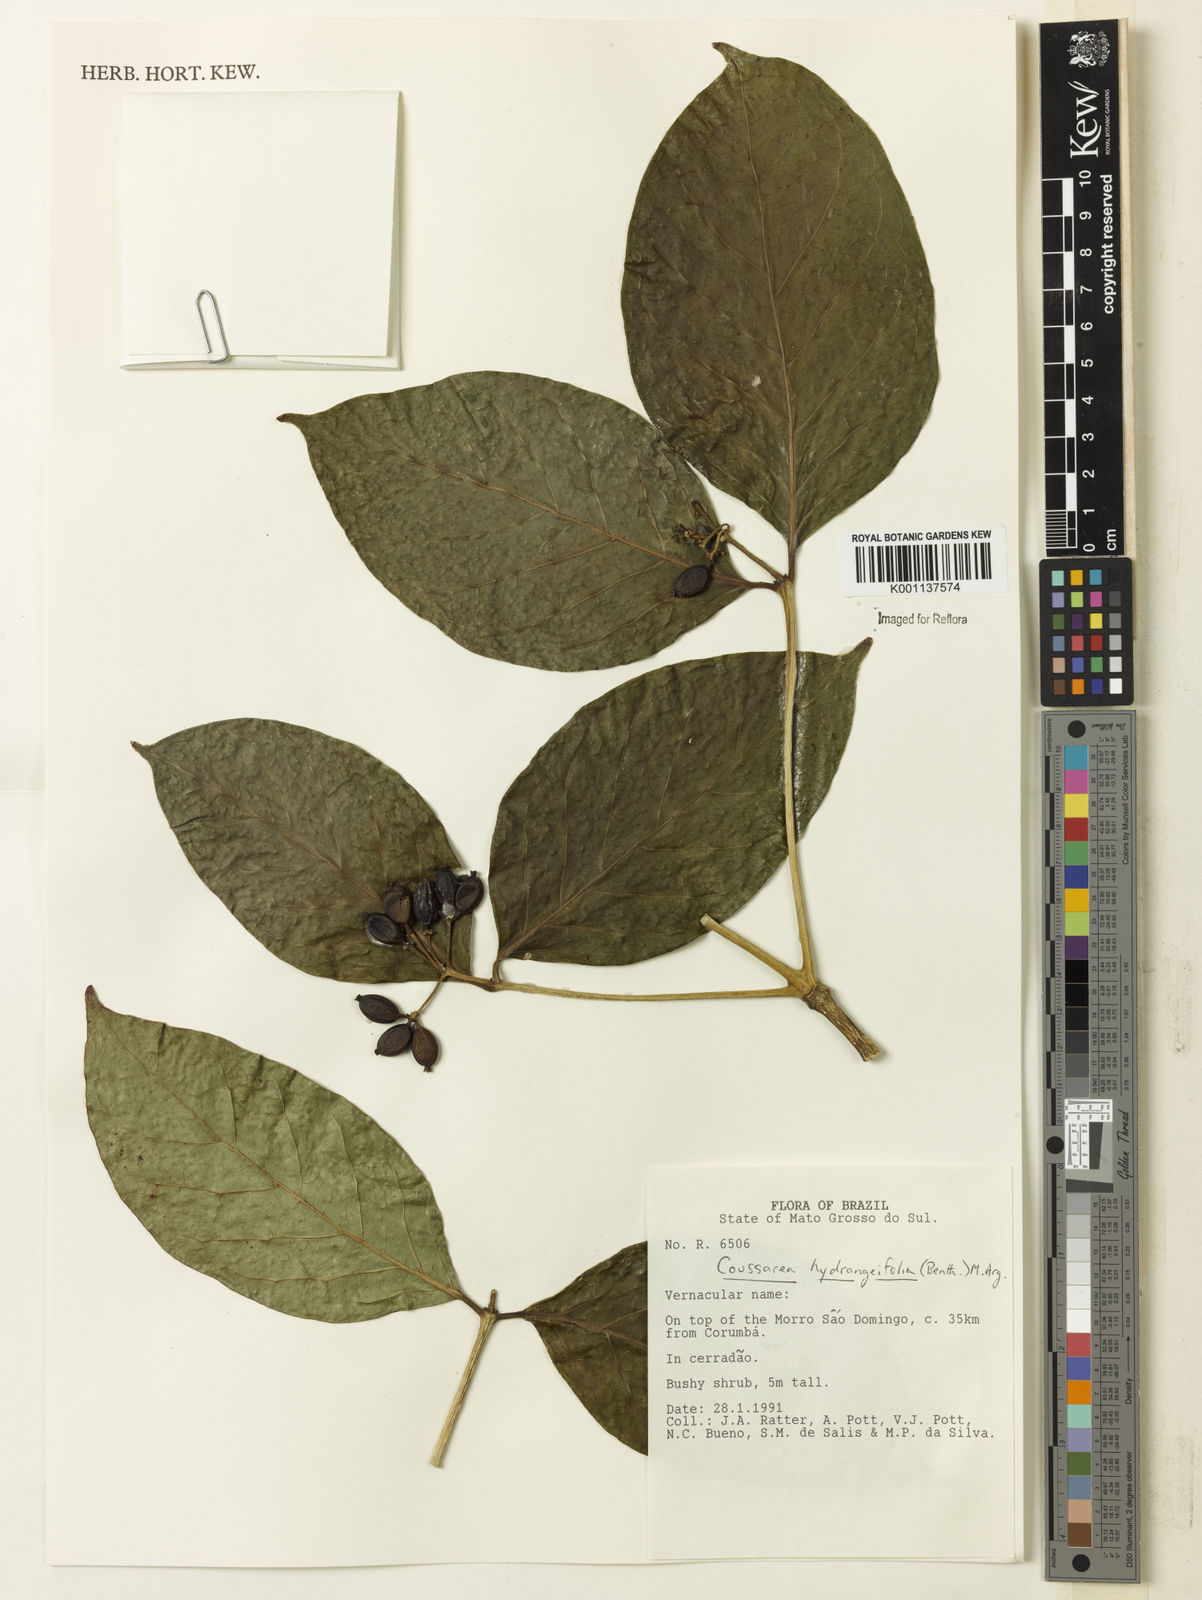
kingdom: Plantae
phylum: Tracheophyta
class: Magnoliopsida
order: Gentianales
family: Rubiaceae
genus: Coussarea
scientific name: Coussarea
